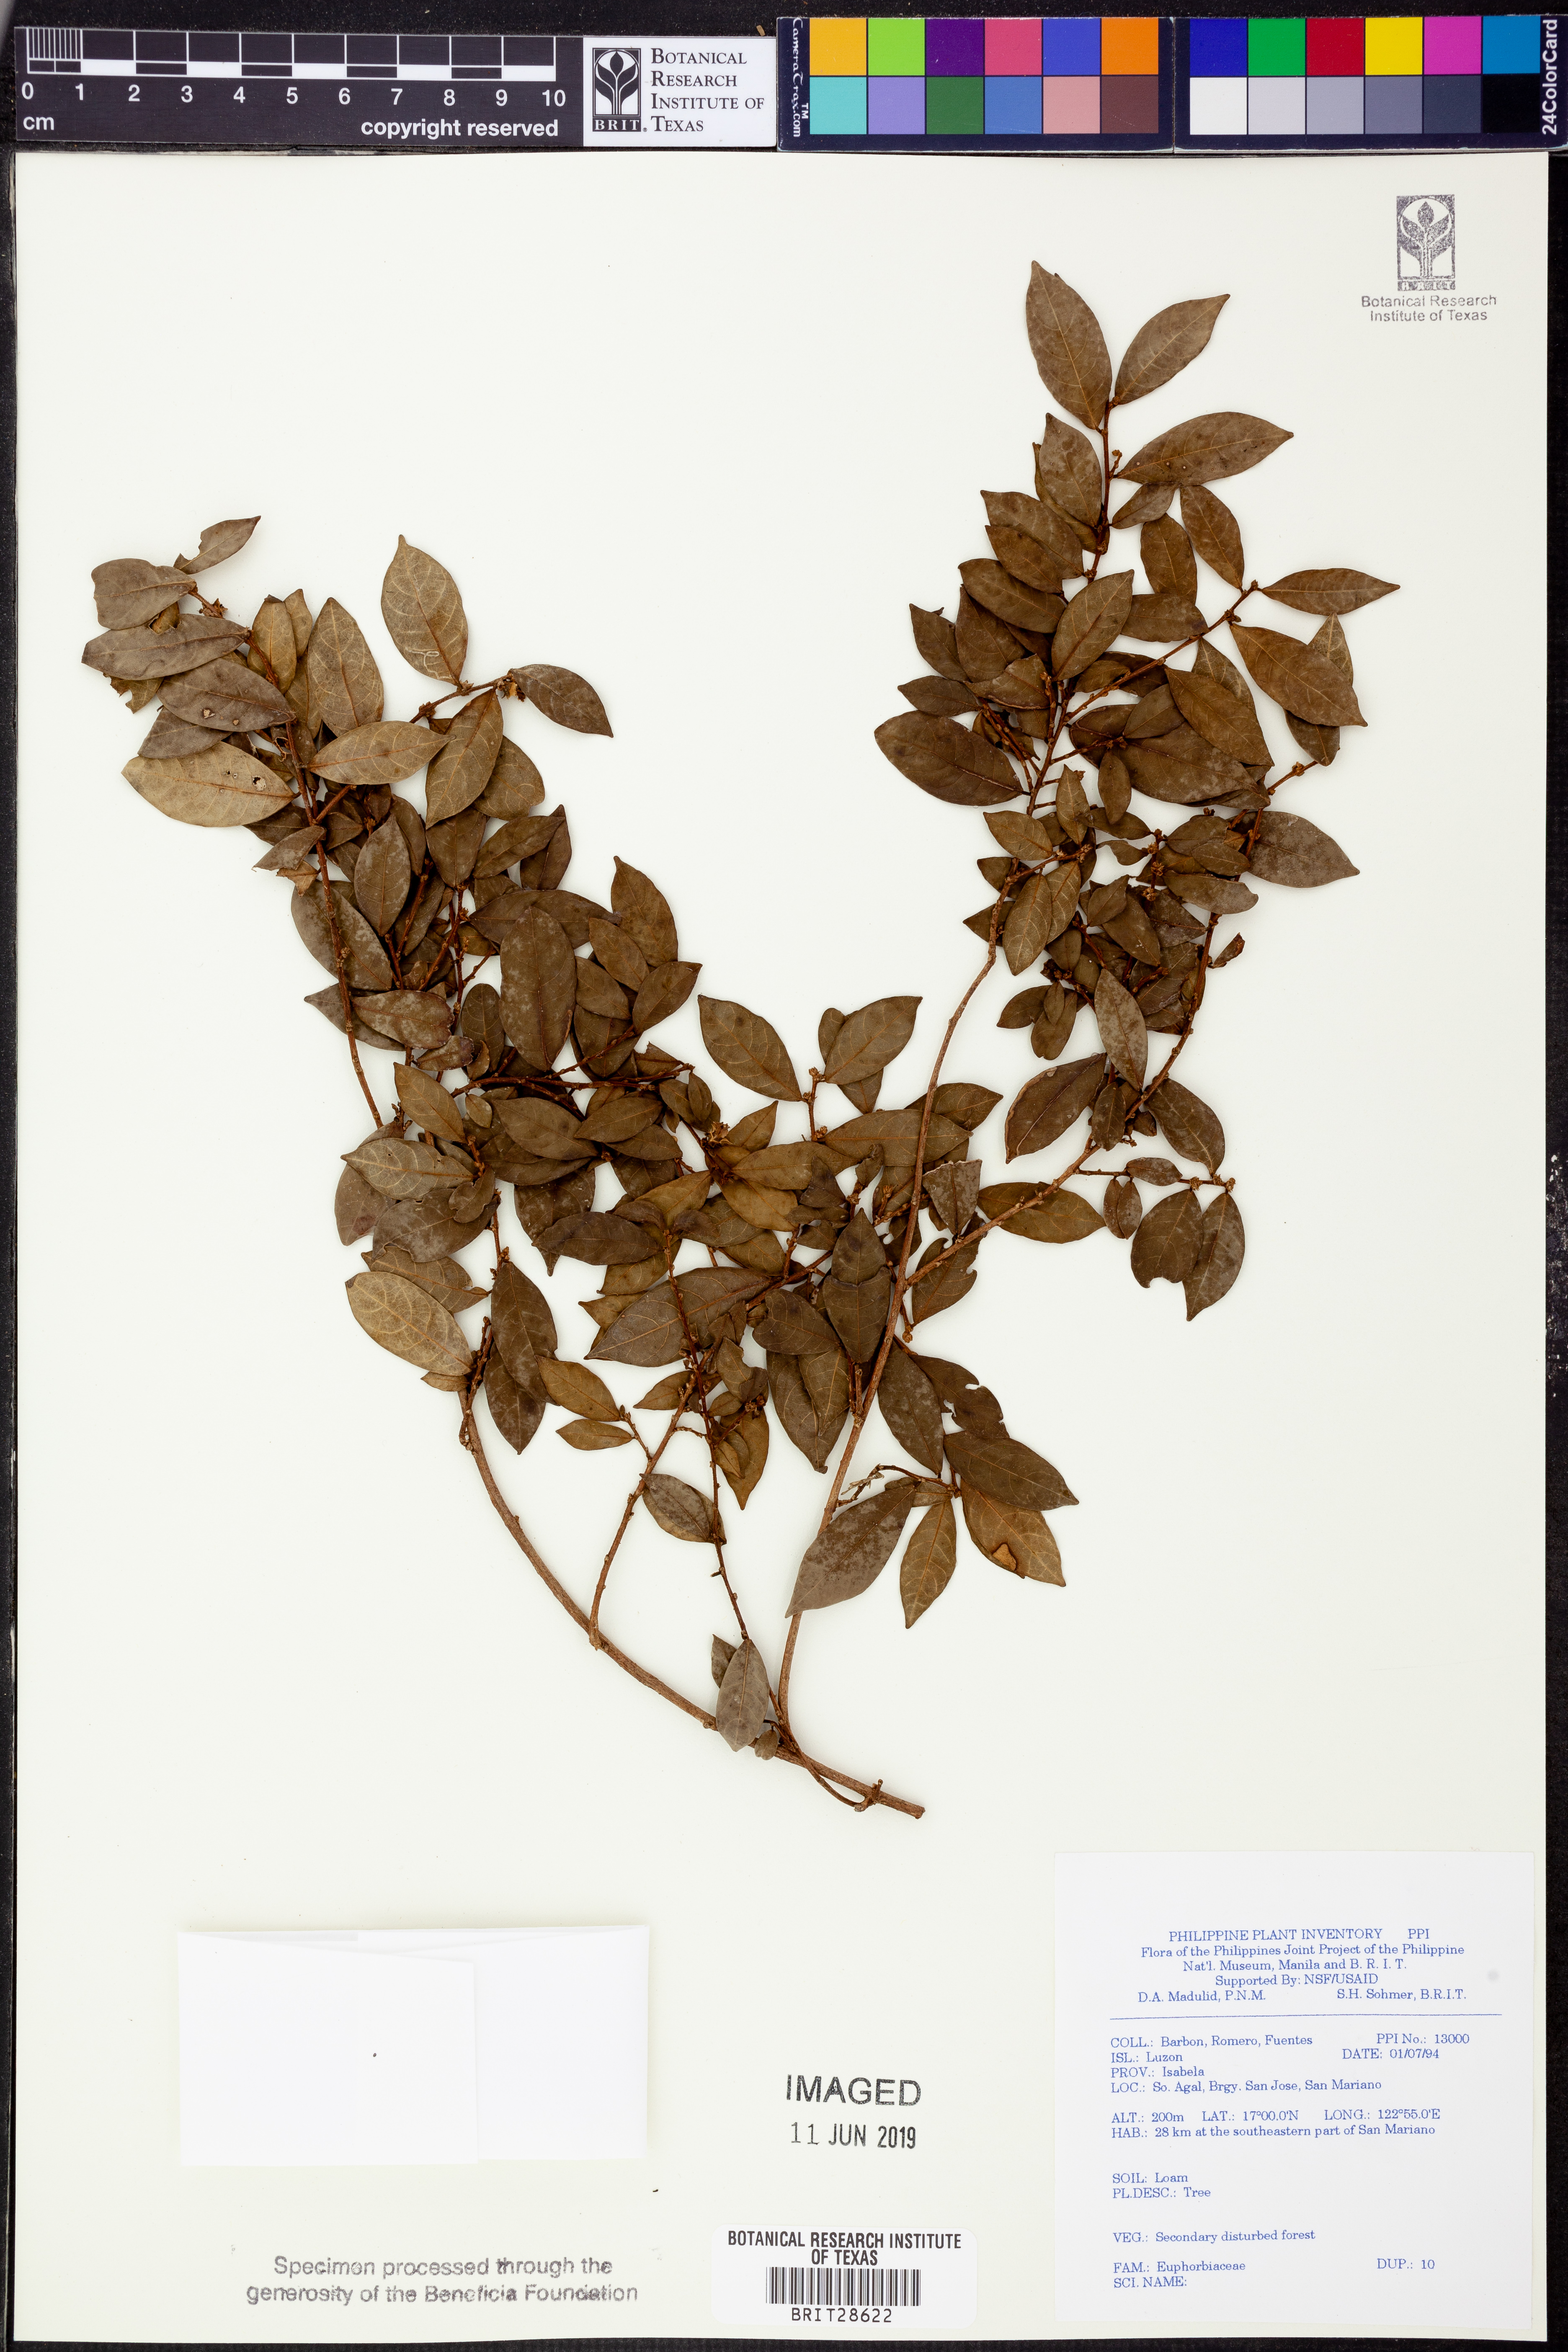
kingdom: Plantae
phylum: Tracheophyta
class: Magnoliopsida
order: Malpighiales
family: Euphorbiaceae
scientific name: Euphorbiaceae
